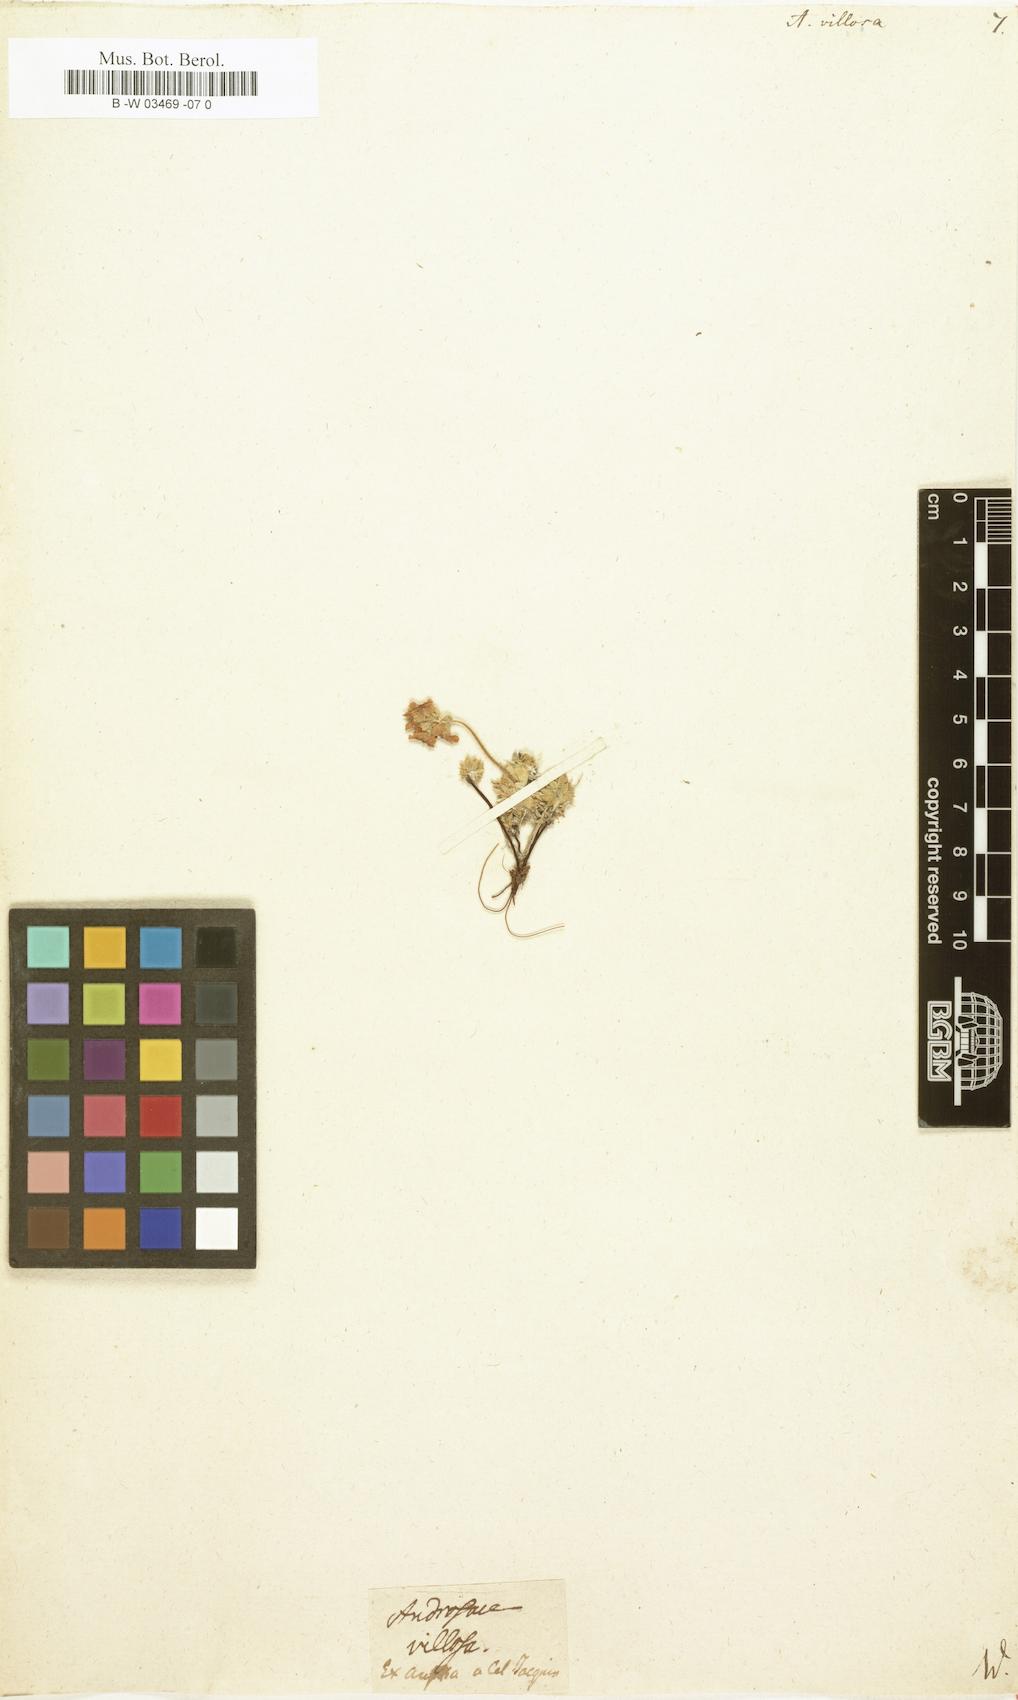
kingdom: Plantae
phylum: Tracheophyta
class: Magnoliopsida
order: Ericales
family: Primulaceae
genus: Androsace
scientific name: Androsace villosa
